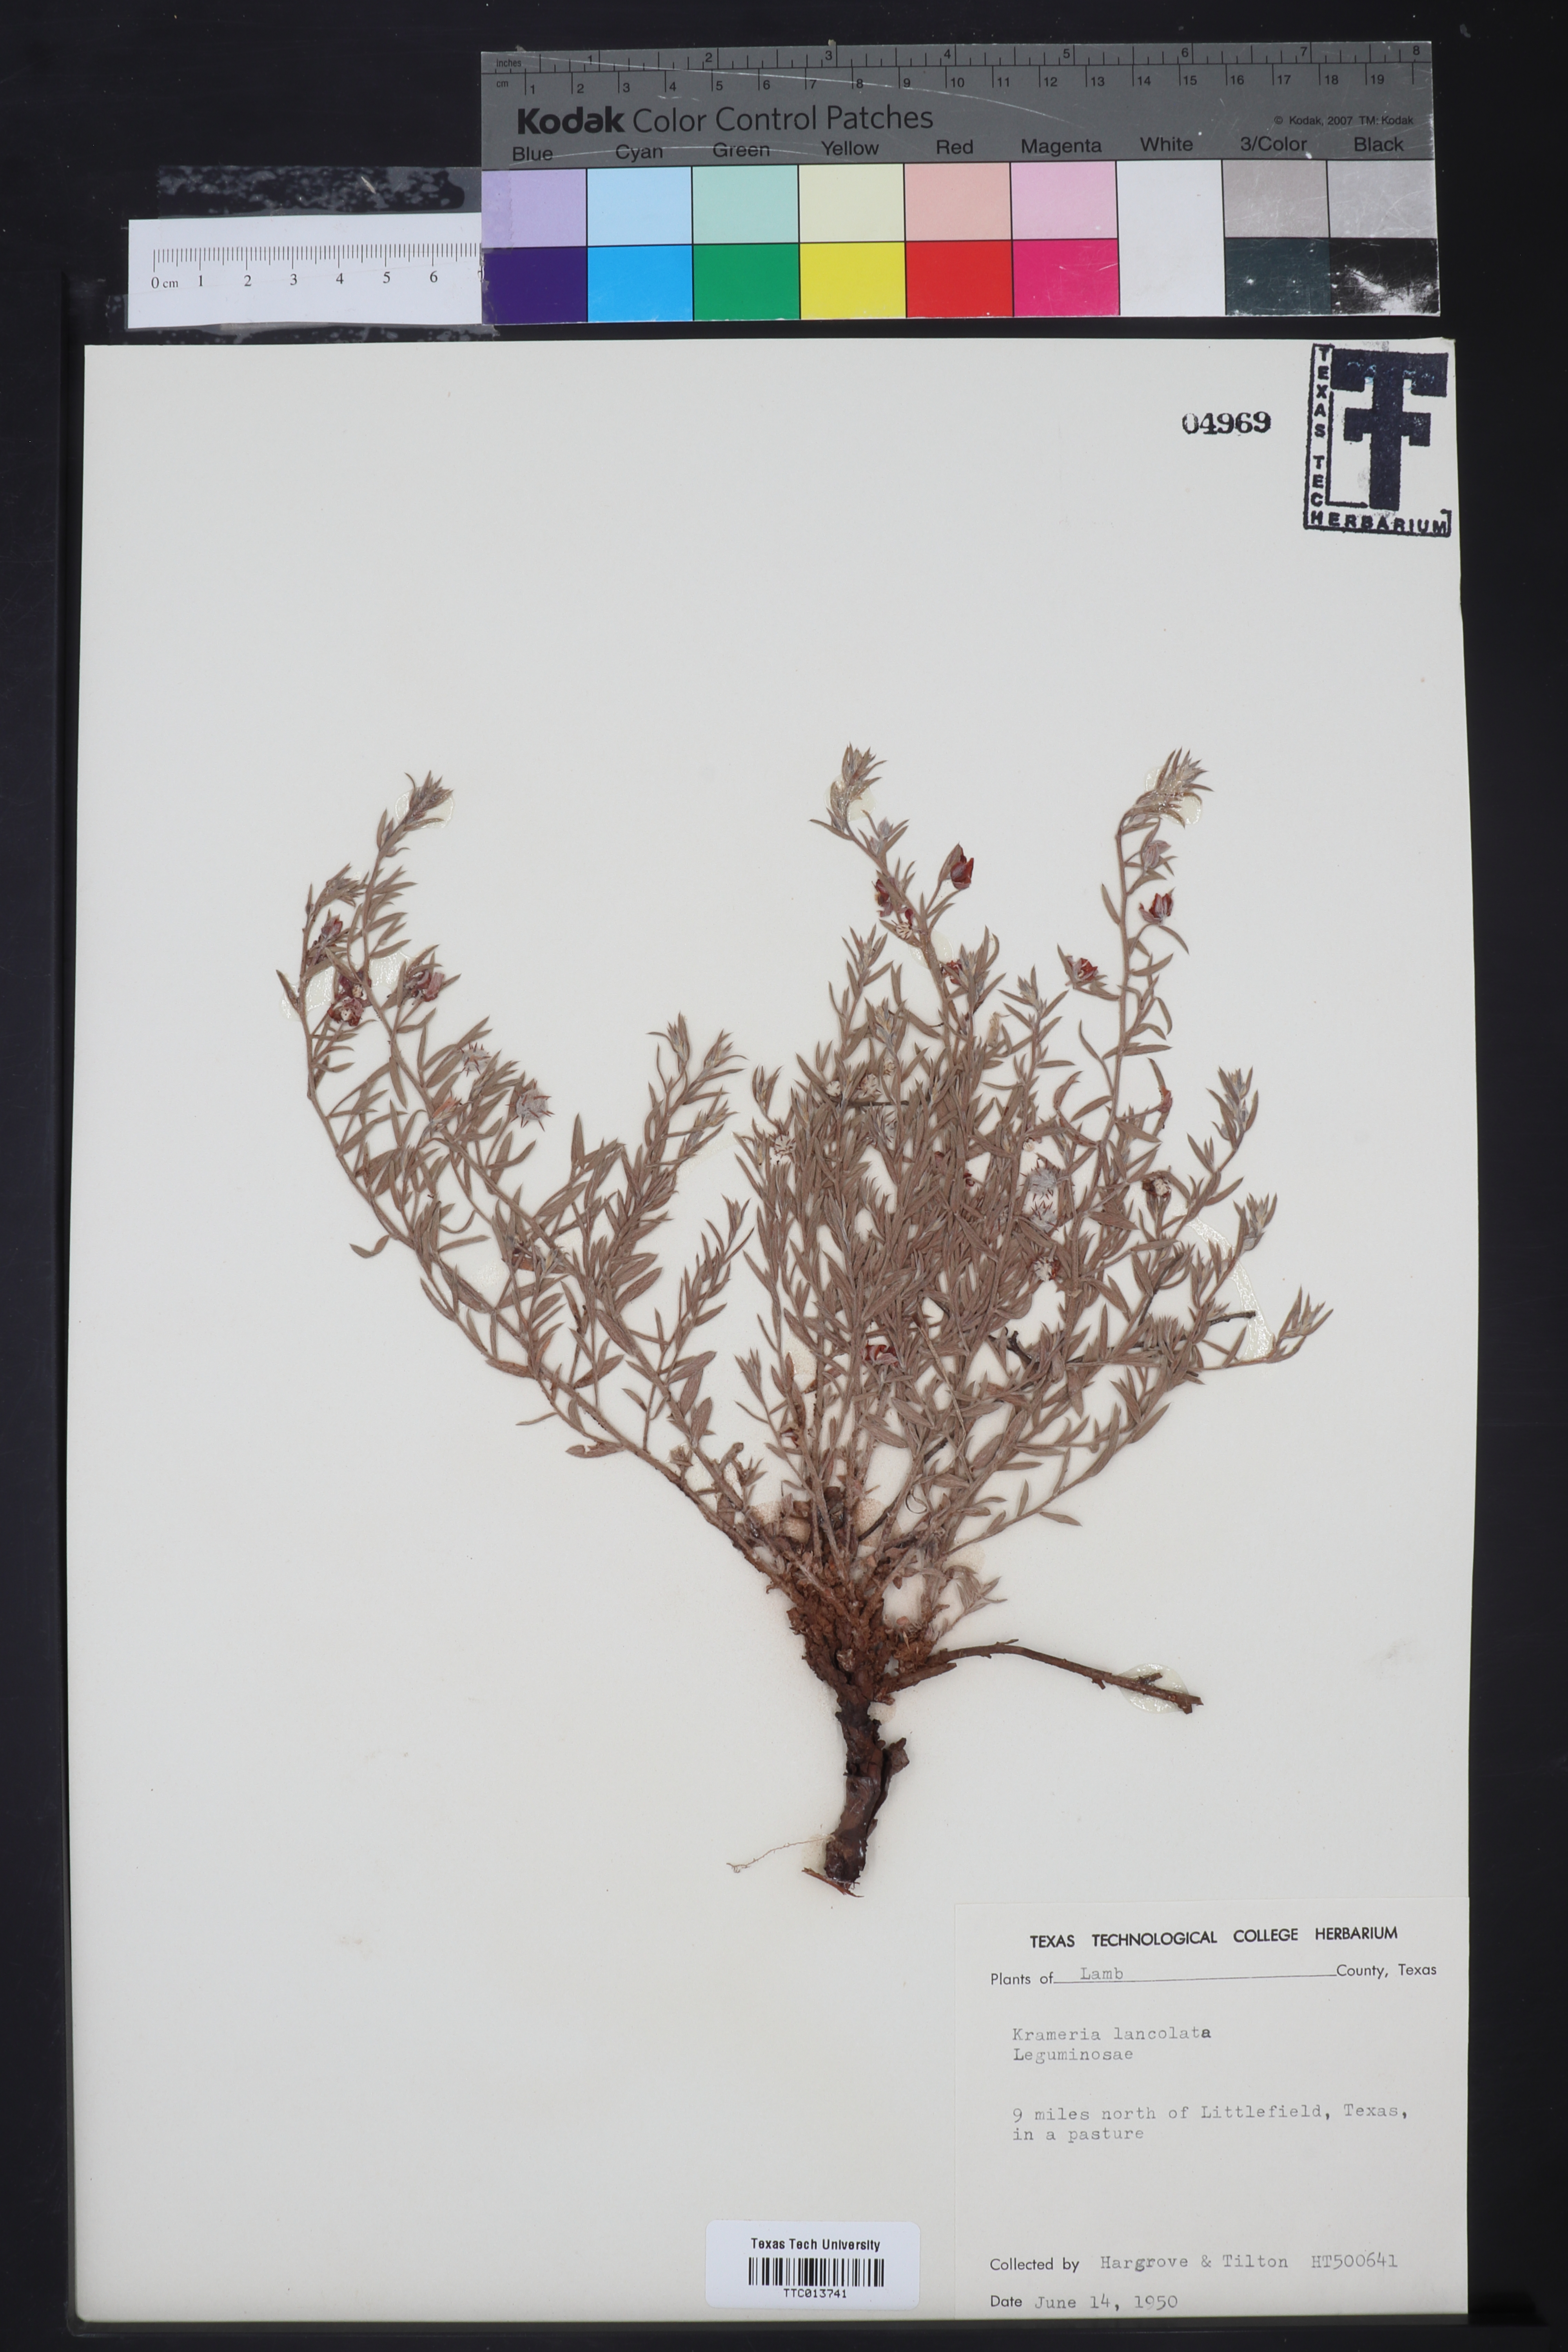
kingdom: Plantae
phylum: Tracheophyta
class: Magnoliopsida
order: Zygophyllales
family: Krameriaceae
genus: Krameria
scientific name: Krameria lanceolata
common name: Ratany
